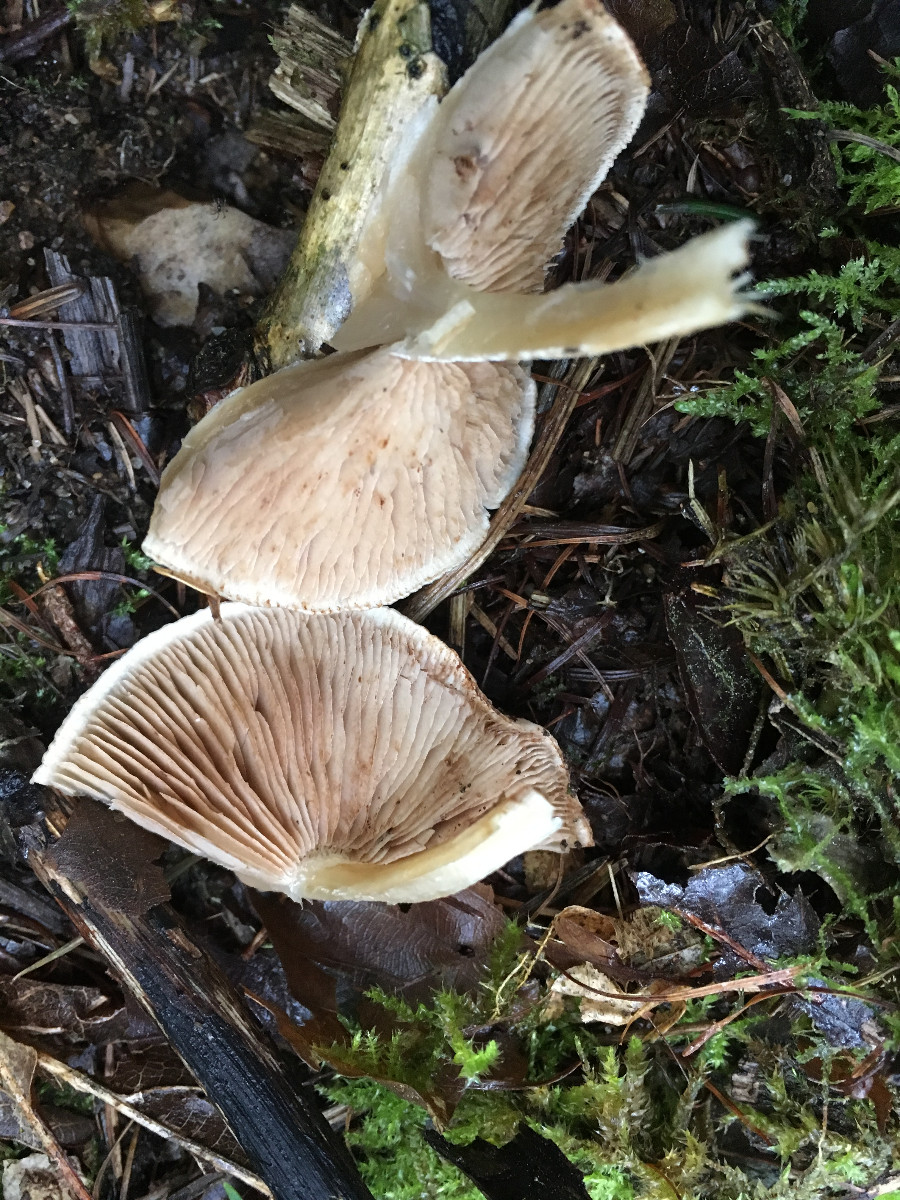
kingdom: Fungi
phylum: Basidiomycota
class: Agaricomycetes
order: Agaricales
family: Hymenogastraceae
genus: Hebeloma
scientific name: Hebeloma
